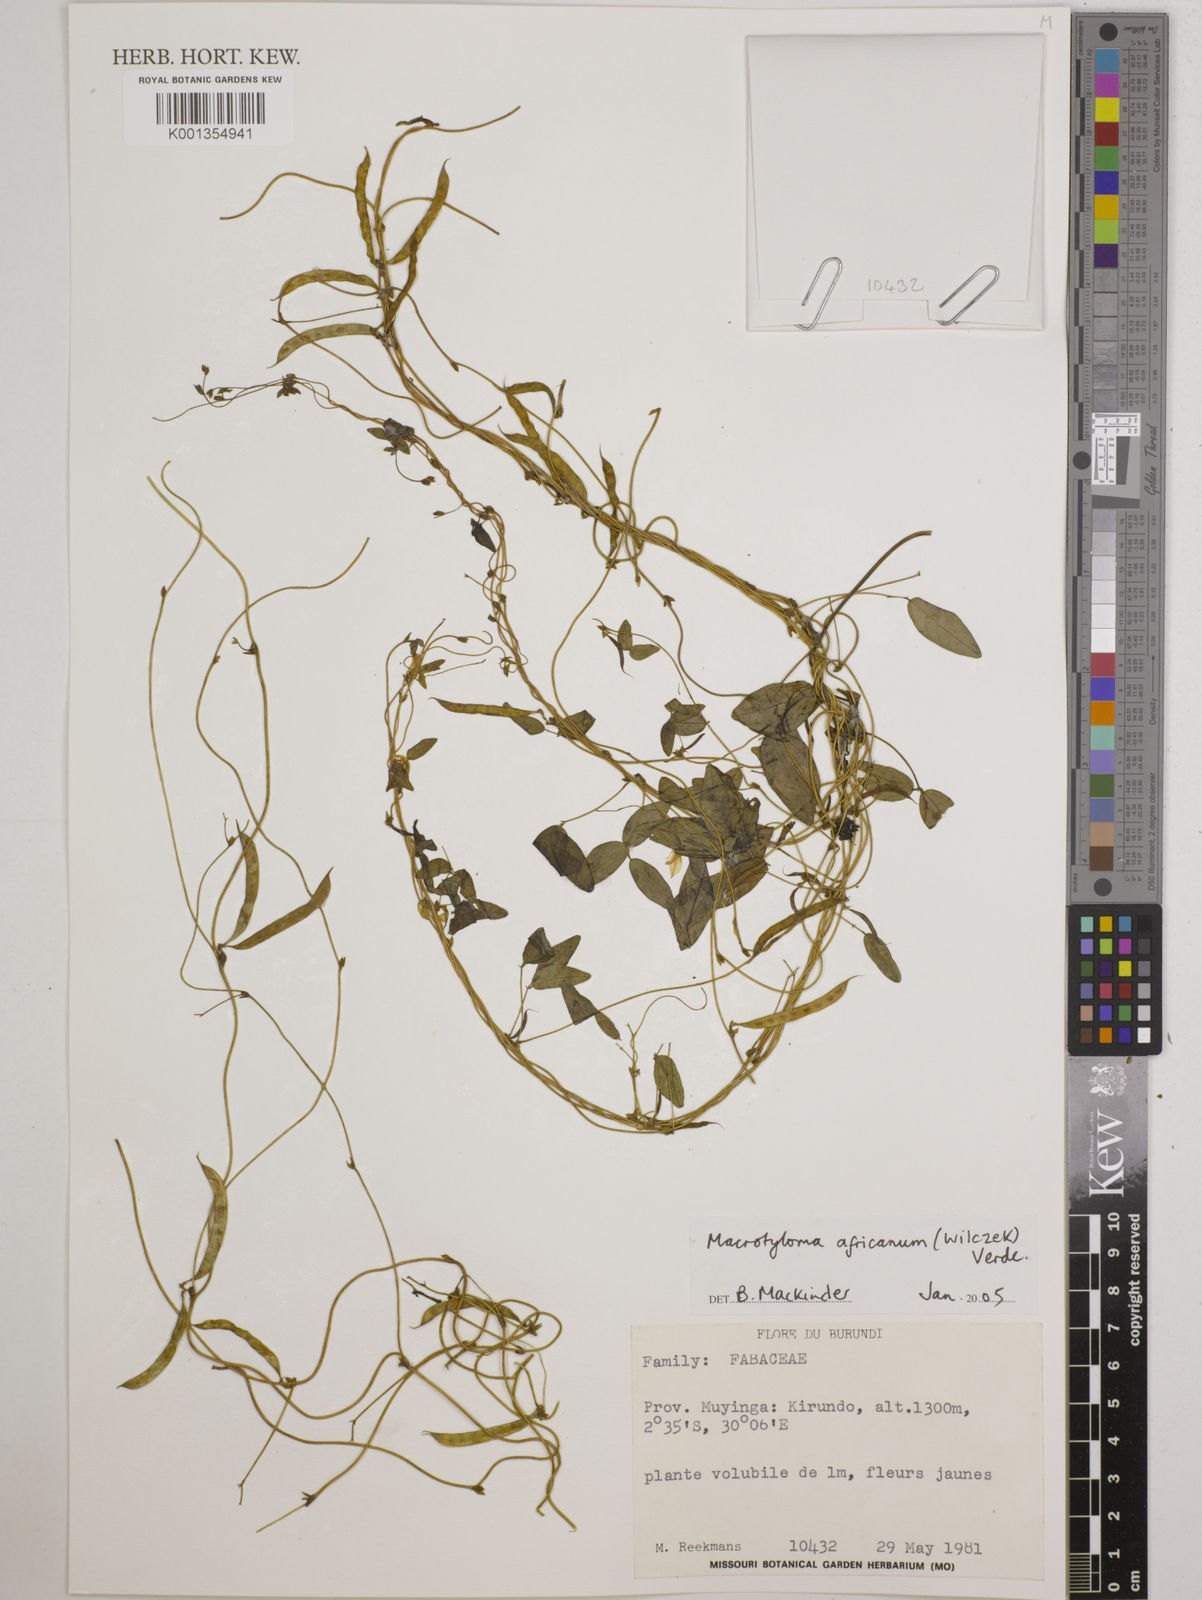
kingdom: Plantae
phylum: Tracheophyta
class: Magnoliopsida
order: Fabales
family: Fabaceae
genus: Macrotyloma
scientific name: Macrotyloma africanum
